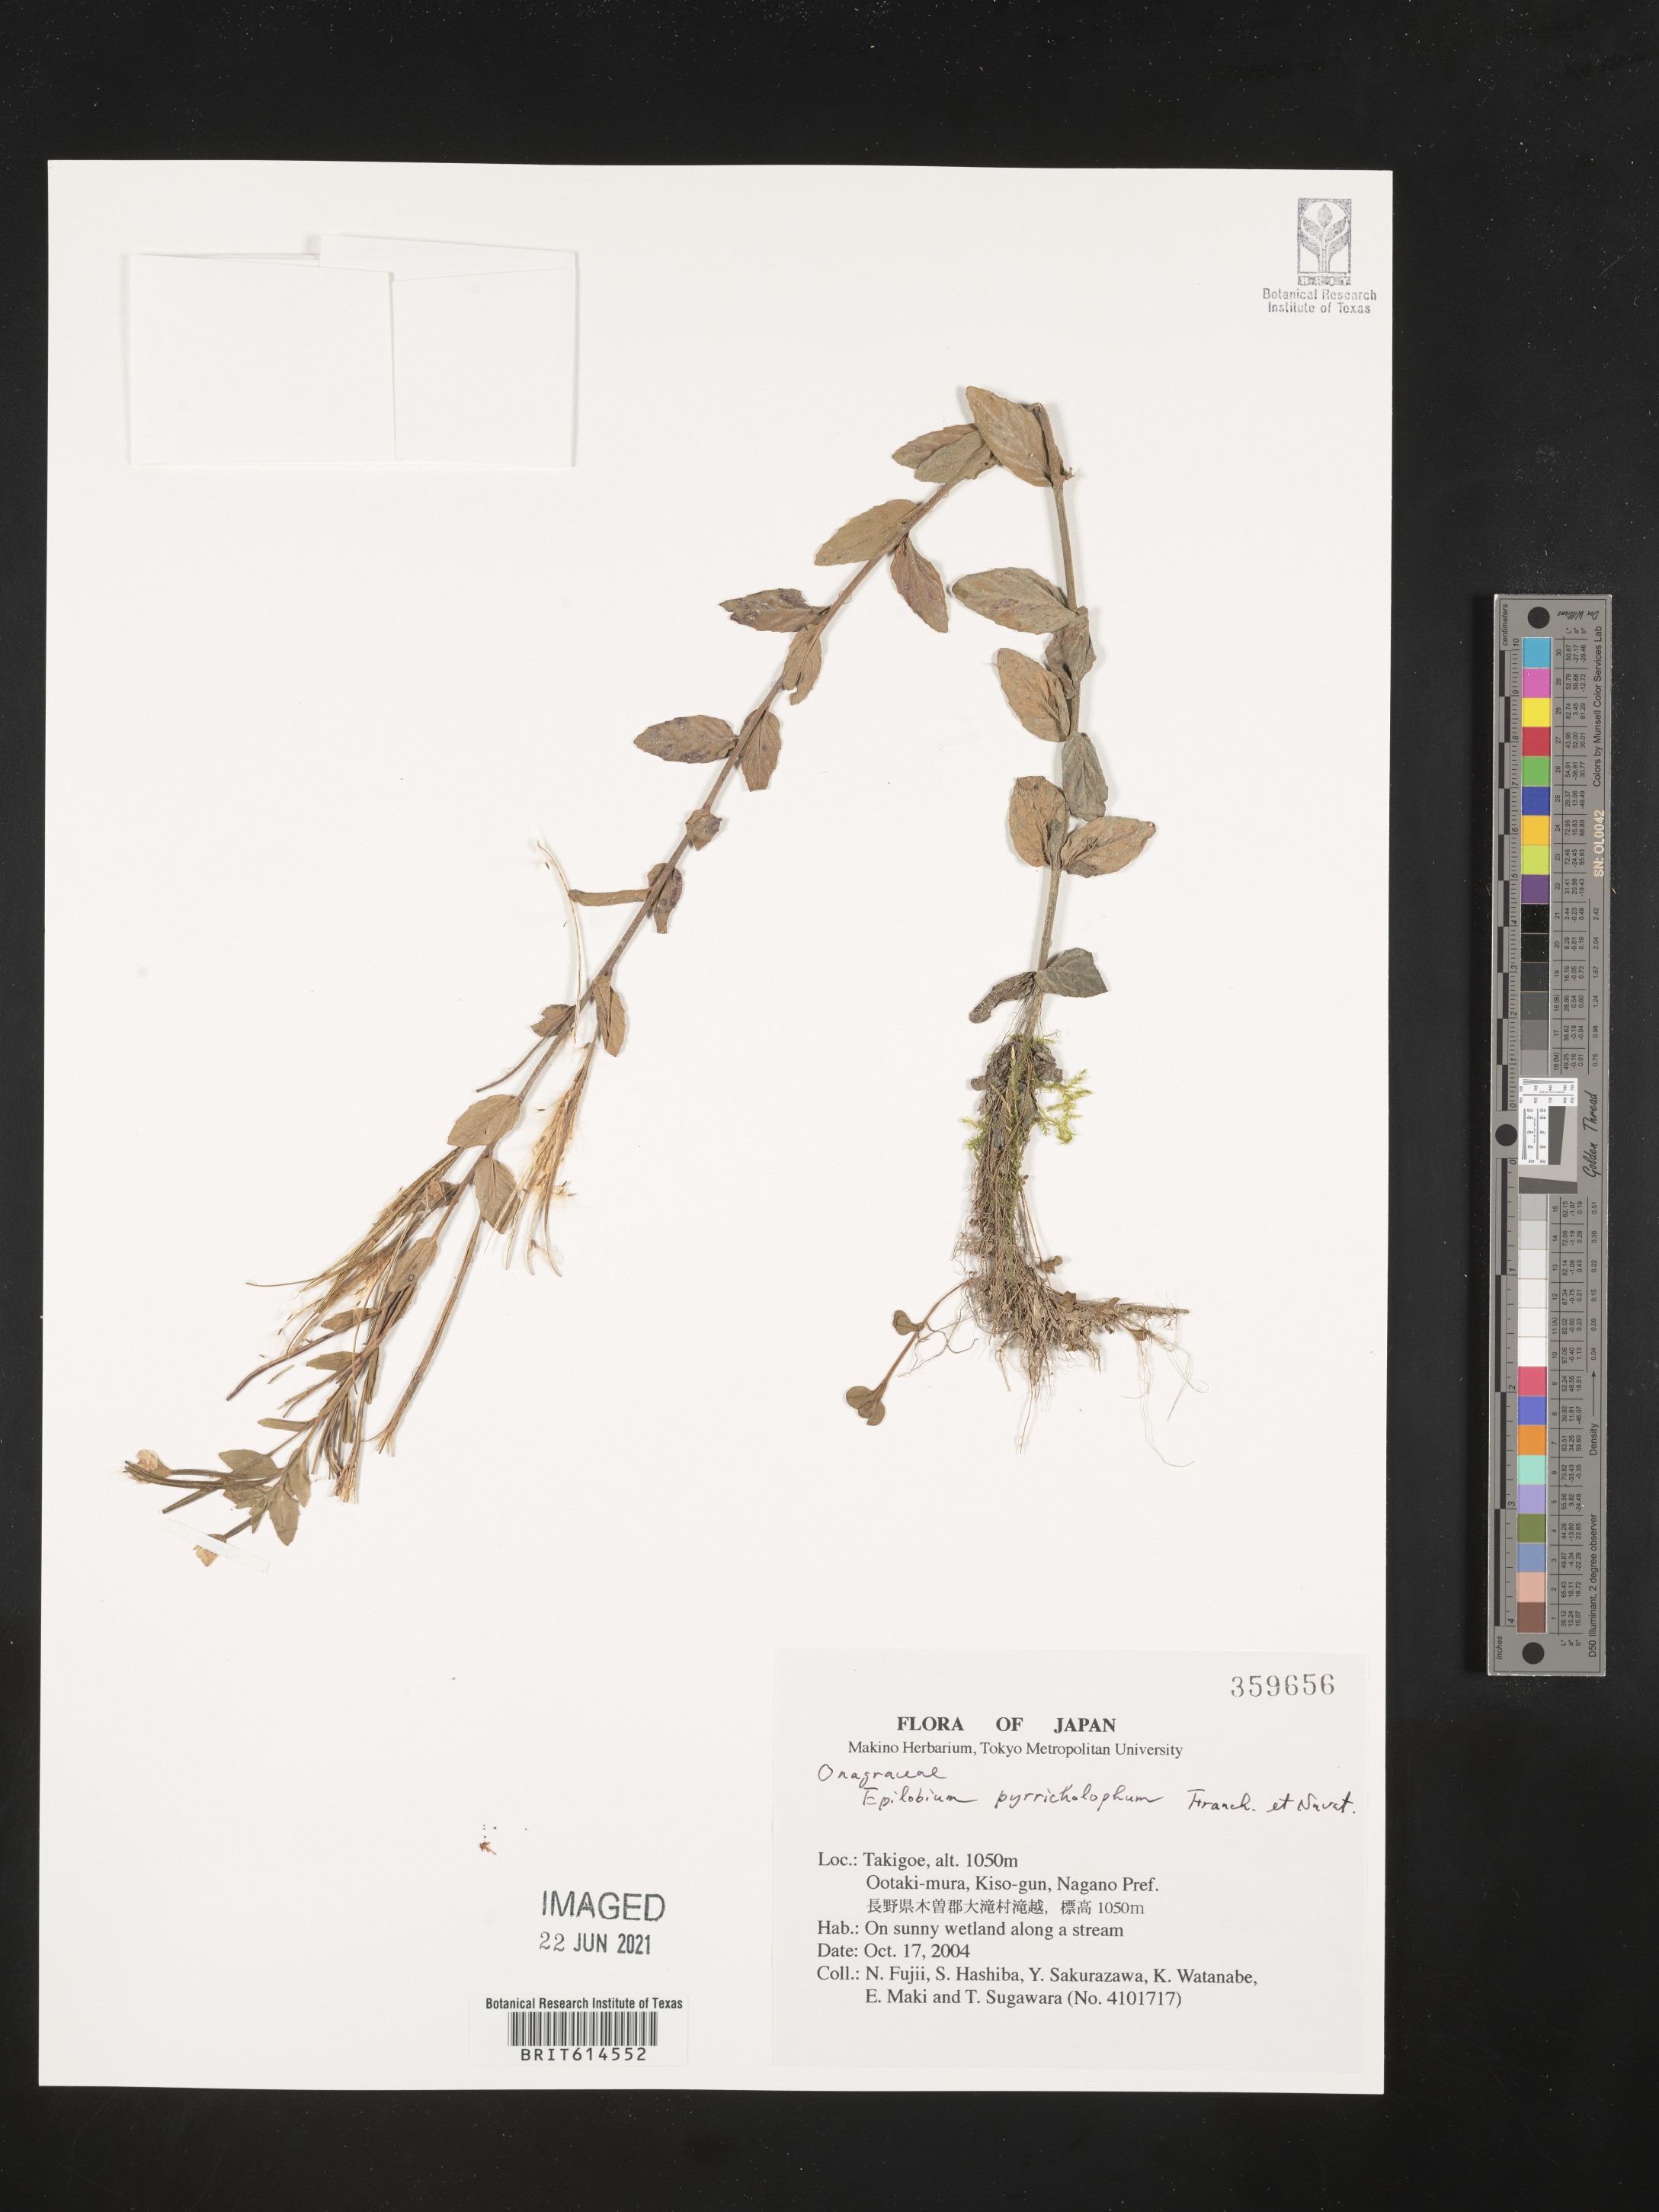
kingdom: Plantae
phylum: Tracheophyta
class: Magnoliopsida
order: Myrtales
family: Onagraceae
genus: Epilobium
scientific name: Epilobium pyrricholophum
